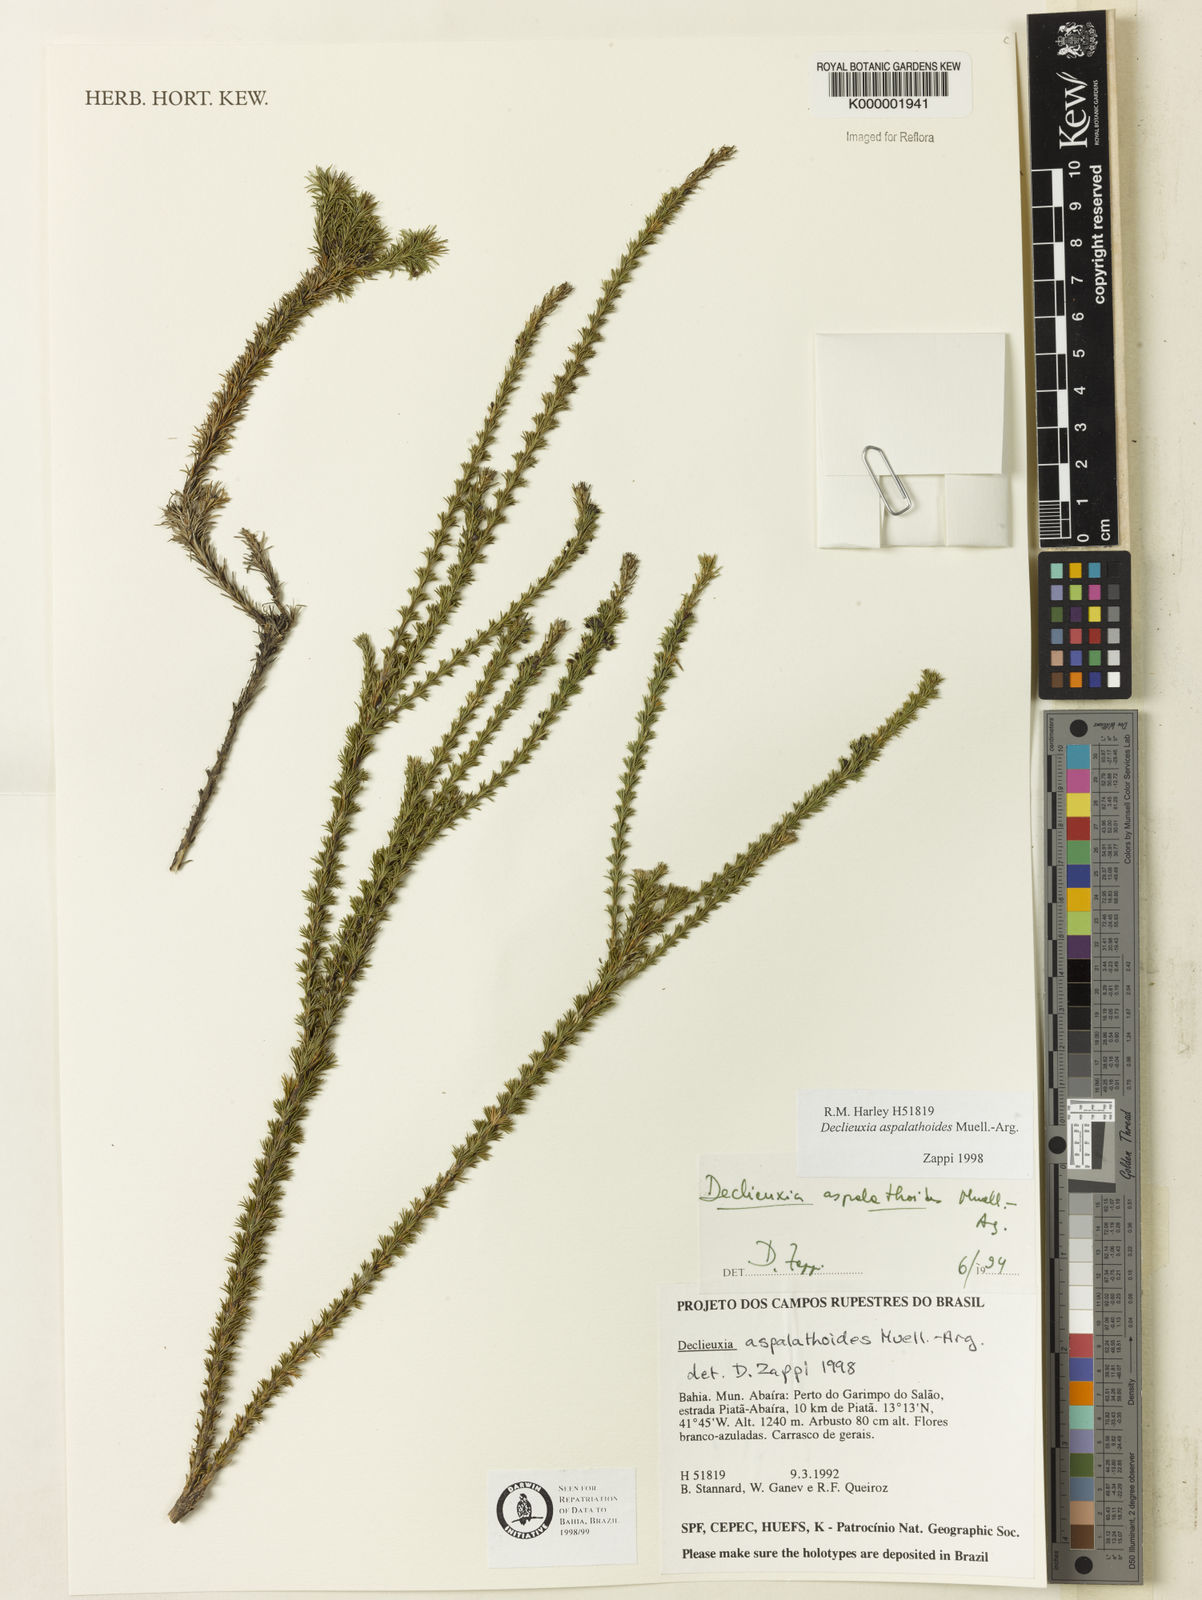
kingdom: Plantae
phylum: Tracheophyta
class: Magnoliopsida
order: Gentianales
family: Rubiaceae
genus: Declieuxia
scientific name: Declieuxia aspalathoides
